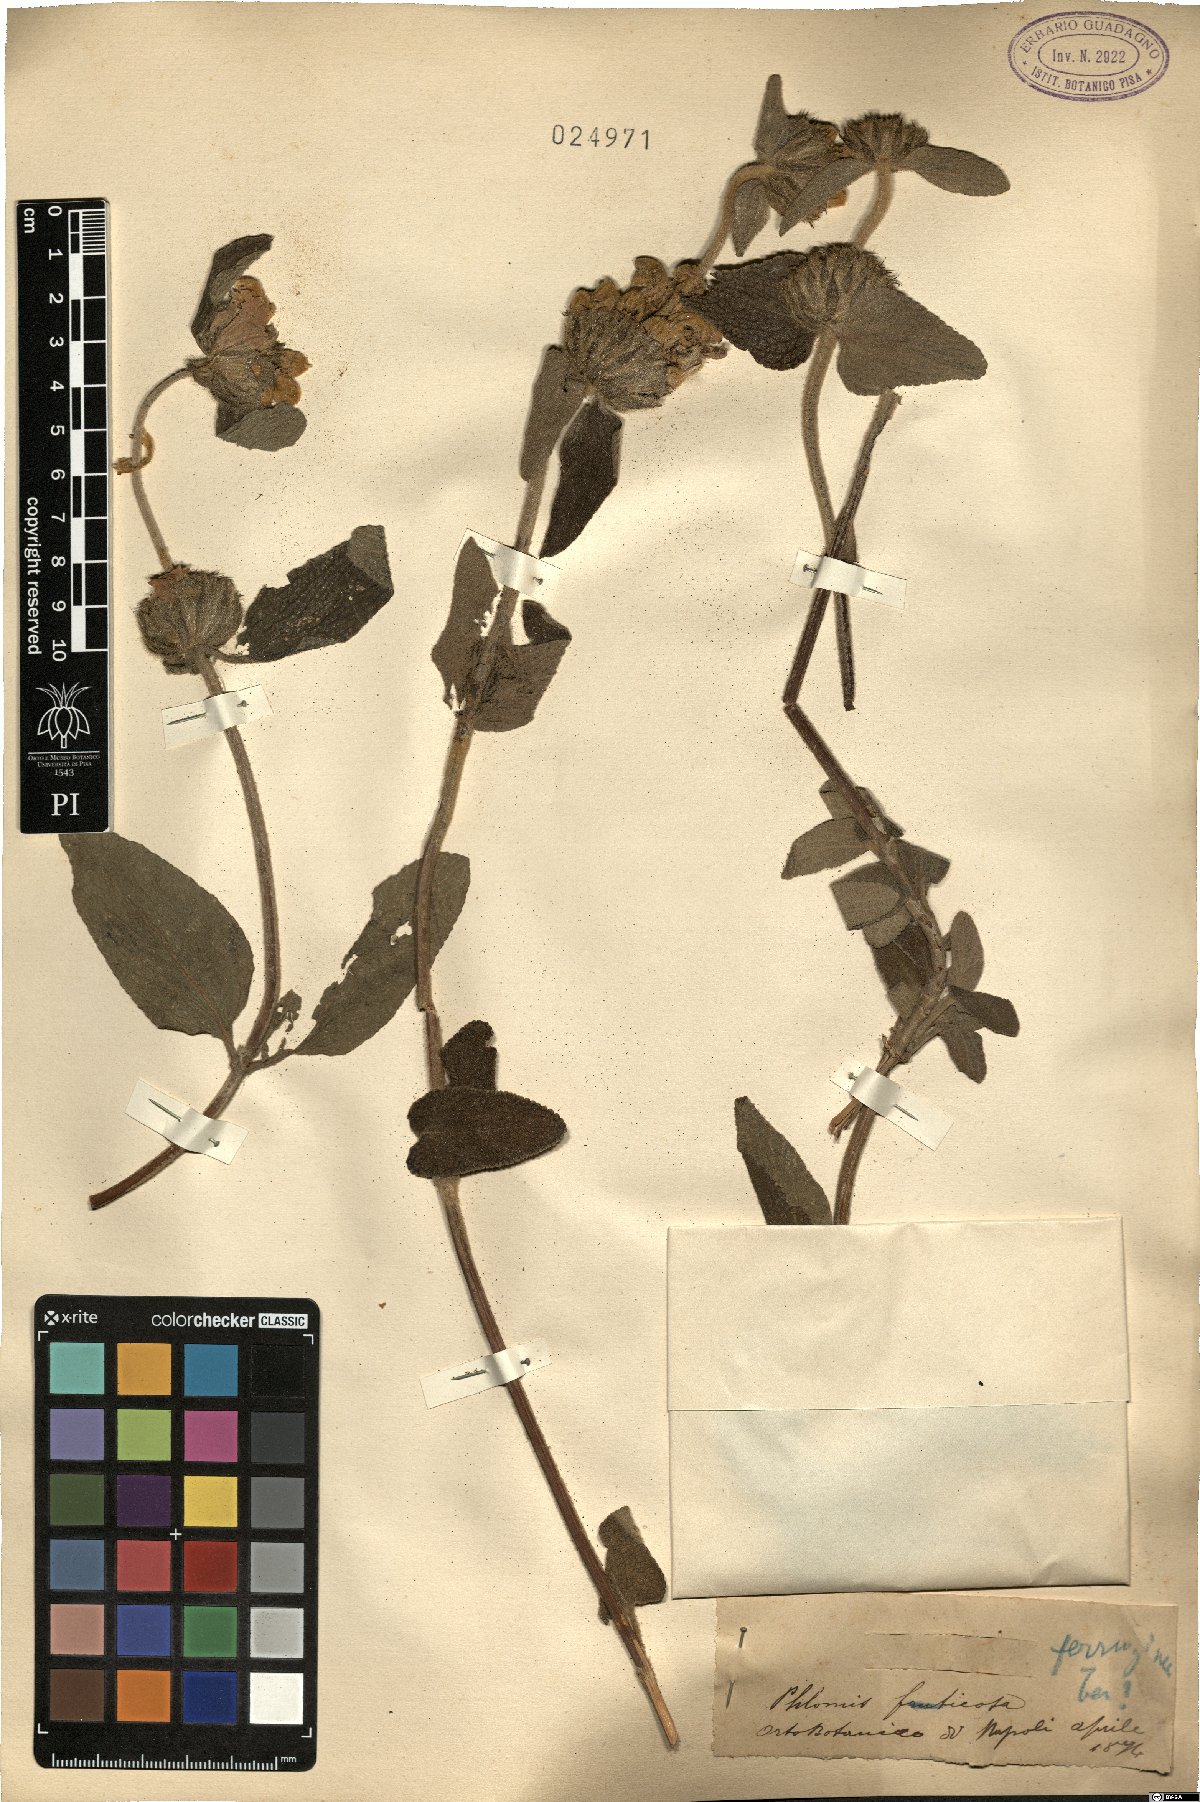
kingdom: Plantae
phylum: Tracheophyta
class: Magnoliopsida
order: Lamiales
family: Lamiaceae
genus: Phlomis
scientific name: Phlomis fruticosa
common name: Jerusalem sage
